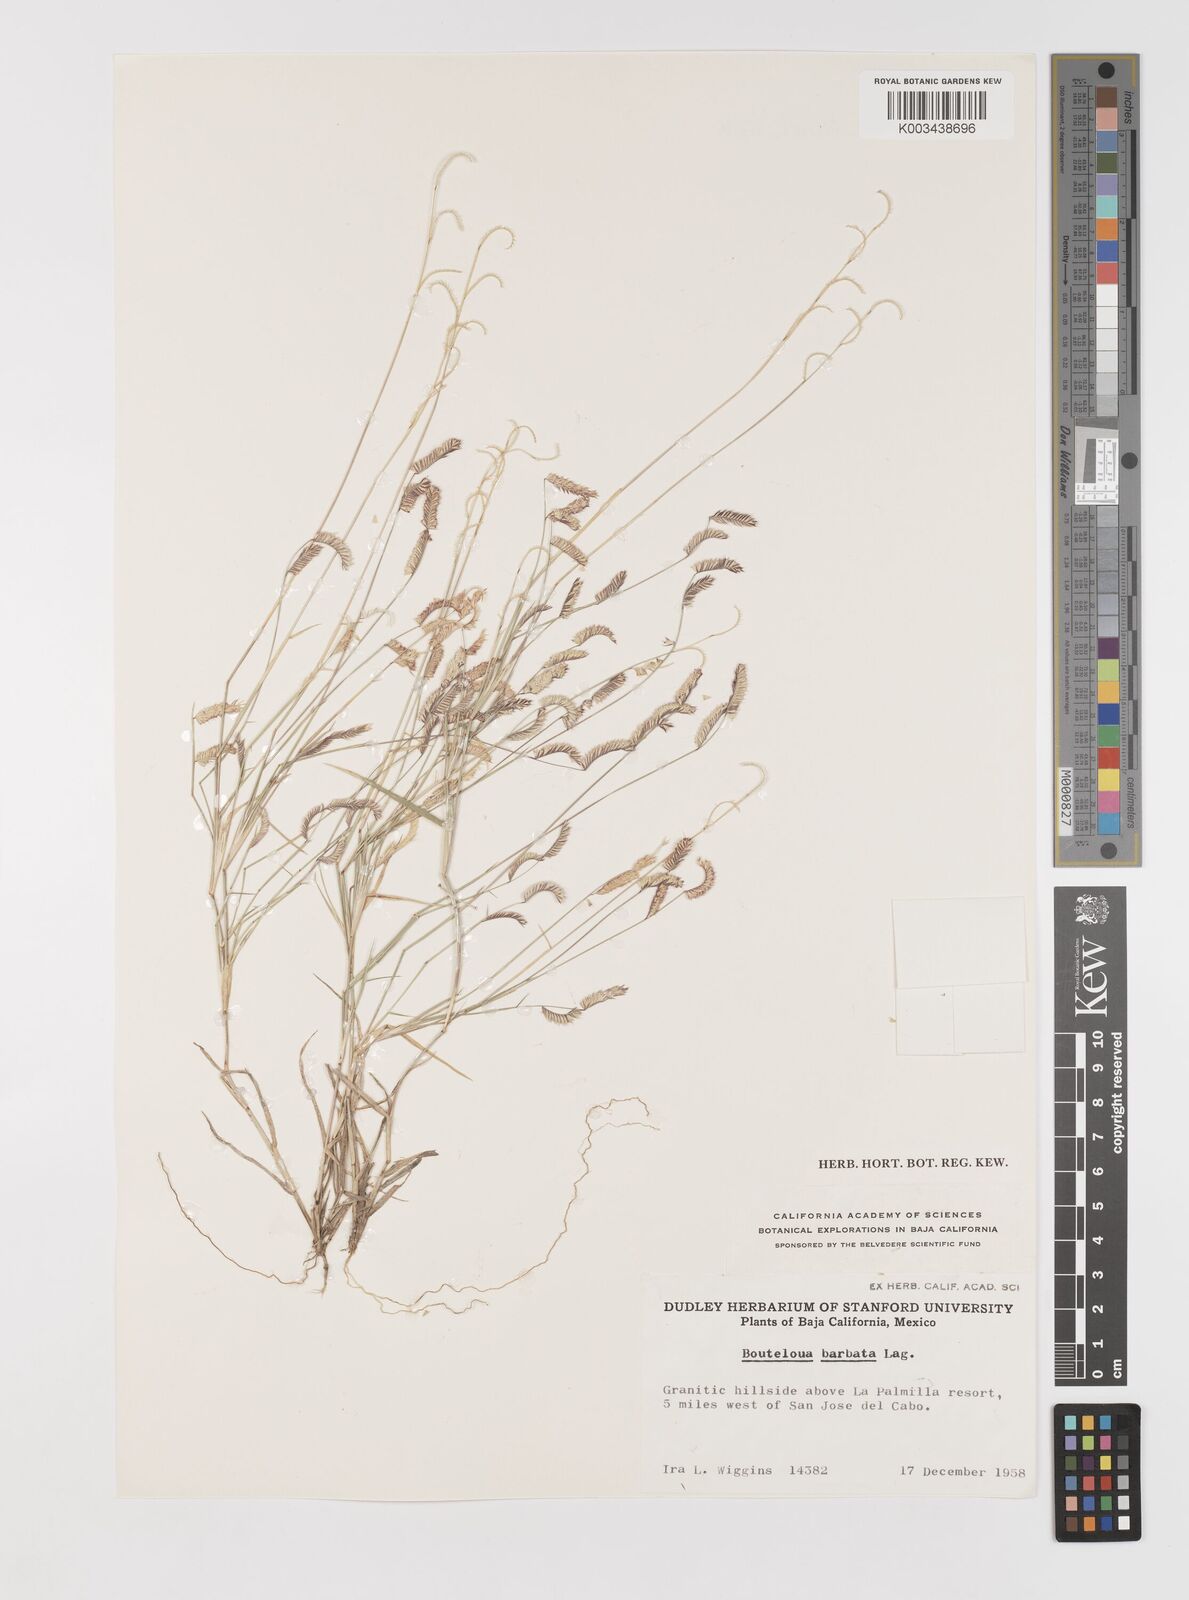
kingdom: Plantae
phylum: Tracheophyta
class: Liliopsida
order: Poales
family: Poaceae
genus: Bouteloua
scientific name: Bouteloua
